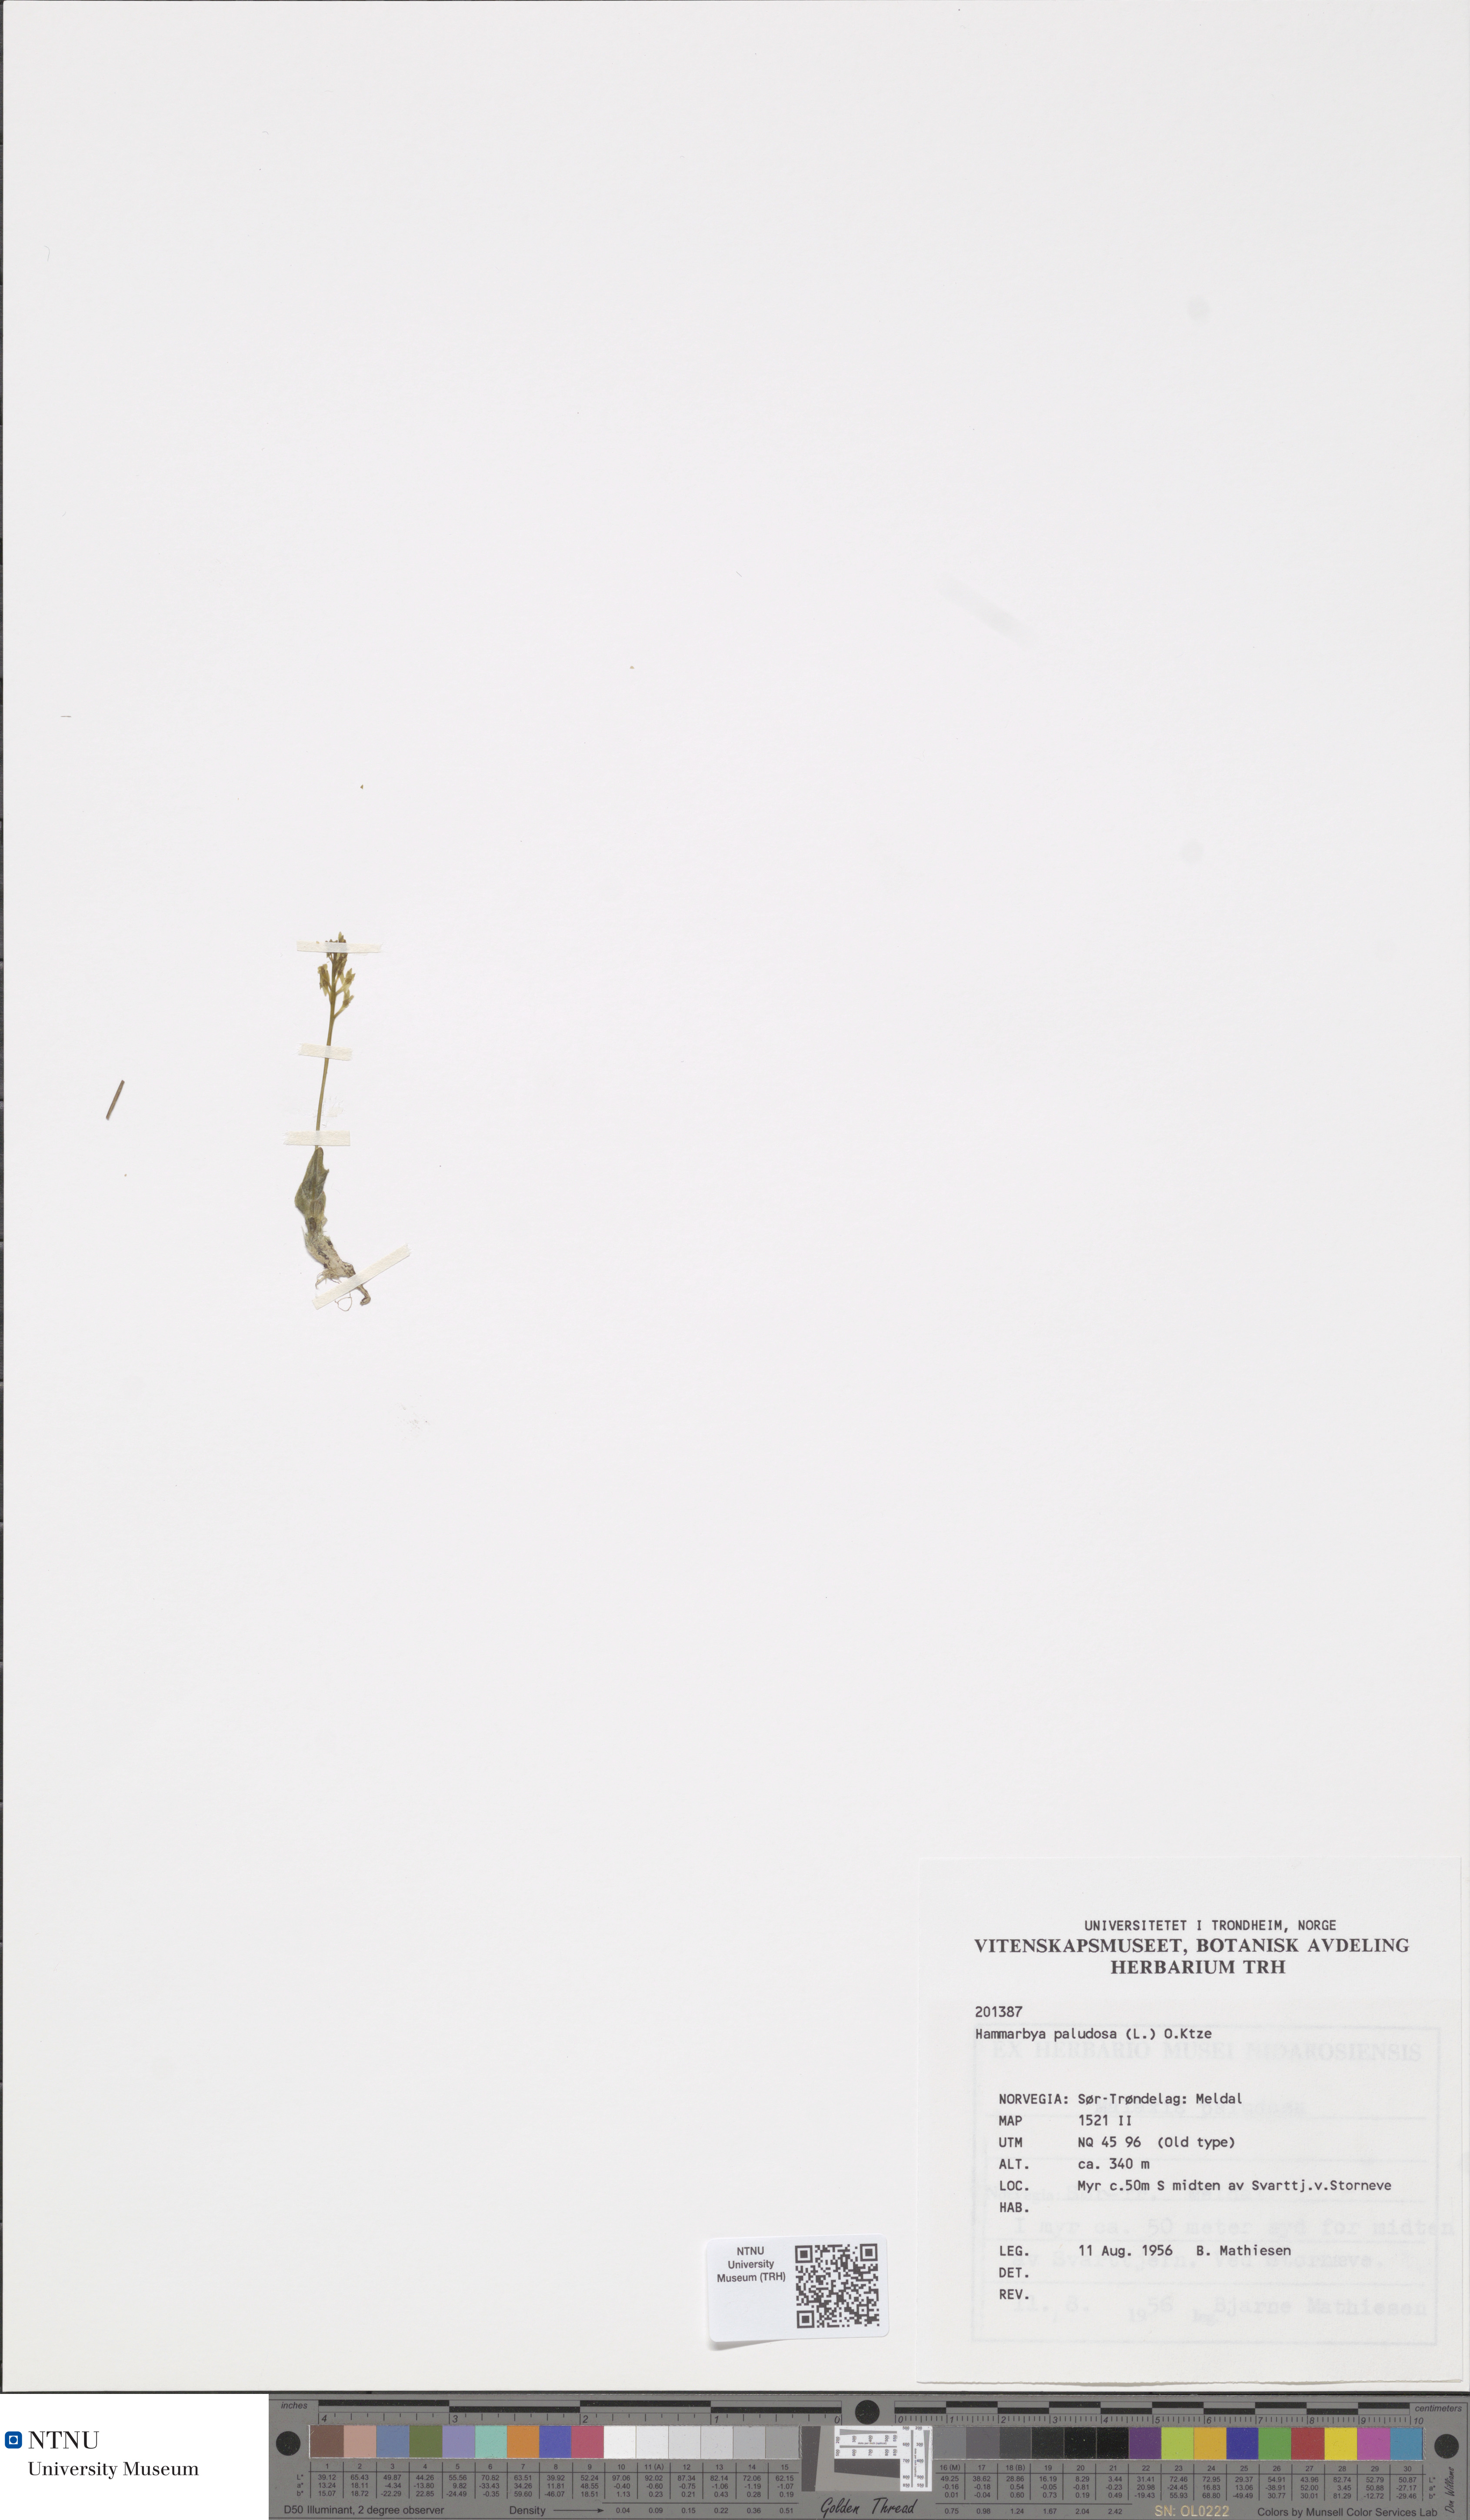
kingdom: Plantae
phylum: Tracheophyta
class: Liliopsida
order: Asparagales
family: Orchidaceae
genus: Hammarbya
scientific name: Hammarbya paludosa
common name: Bog orchid
